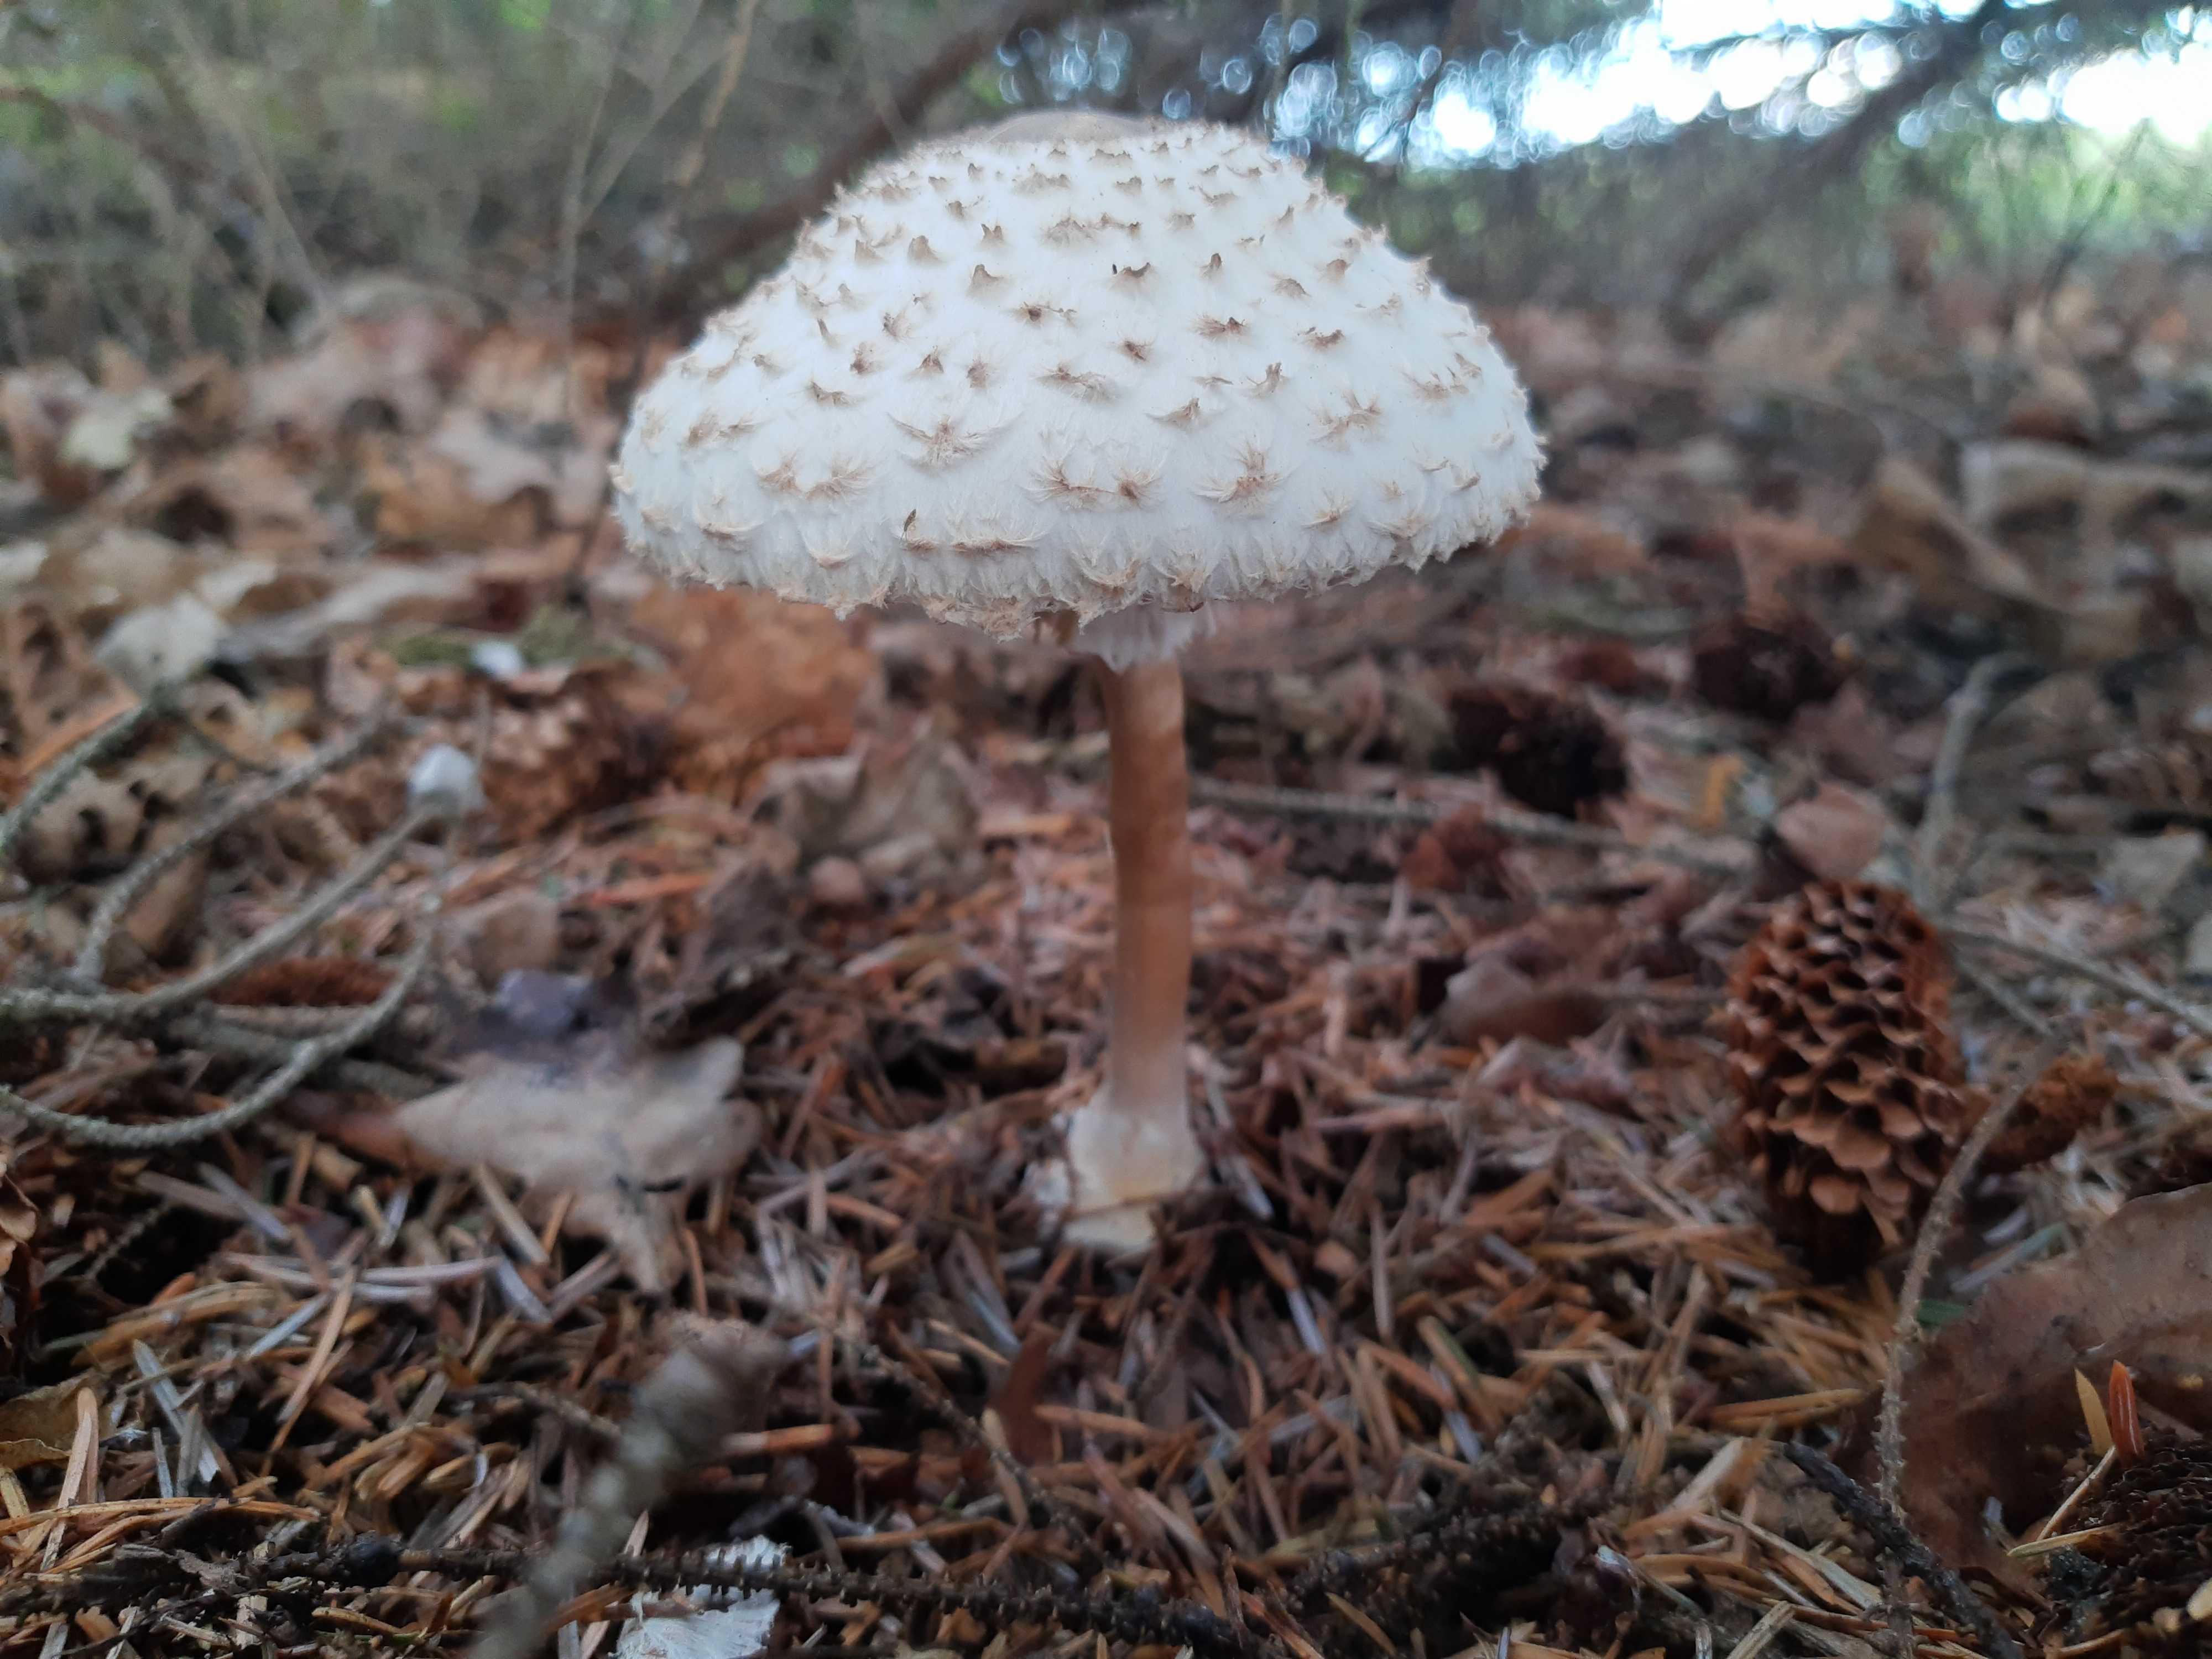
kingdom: Fungi
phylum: Basidiomycota
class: Agaricomycetes
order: Agaricales
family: Agaricaceae
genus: Leucoagaricus
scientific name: Leucoagaricus nympharum
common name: gran-silkehat
